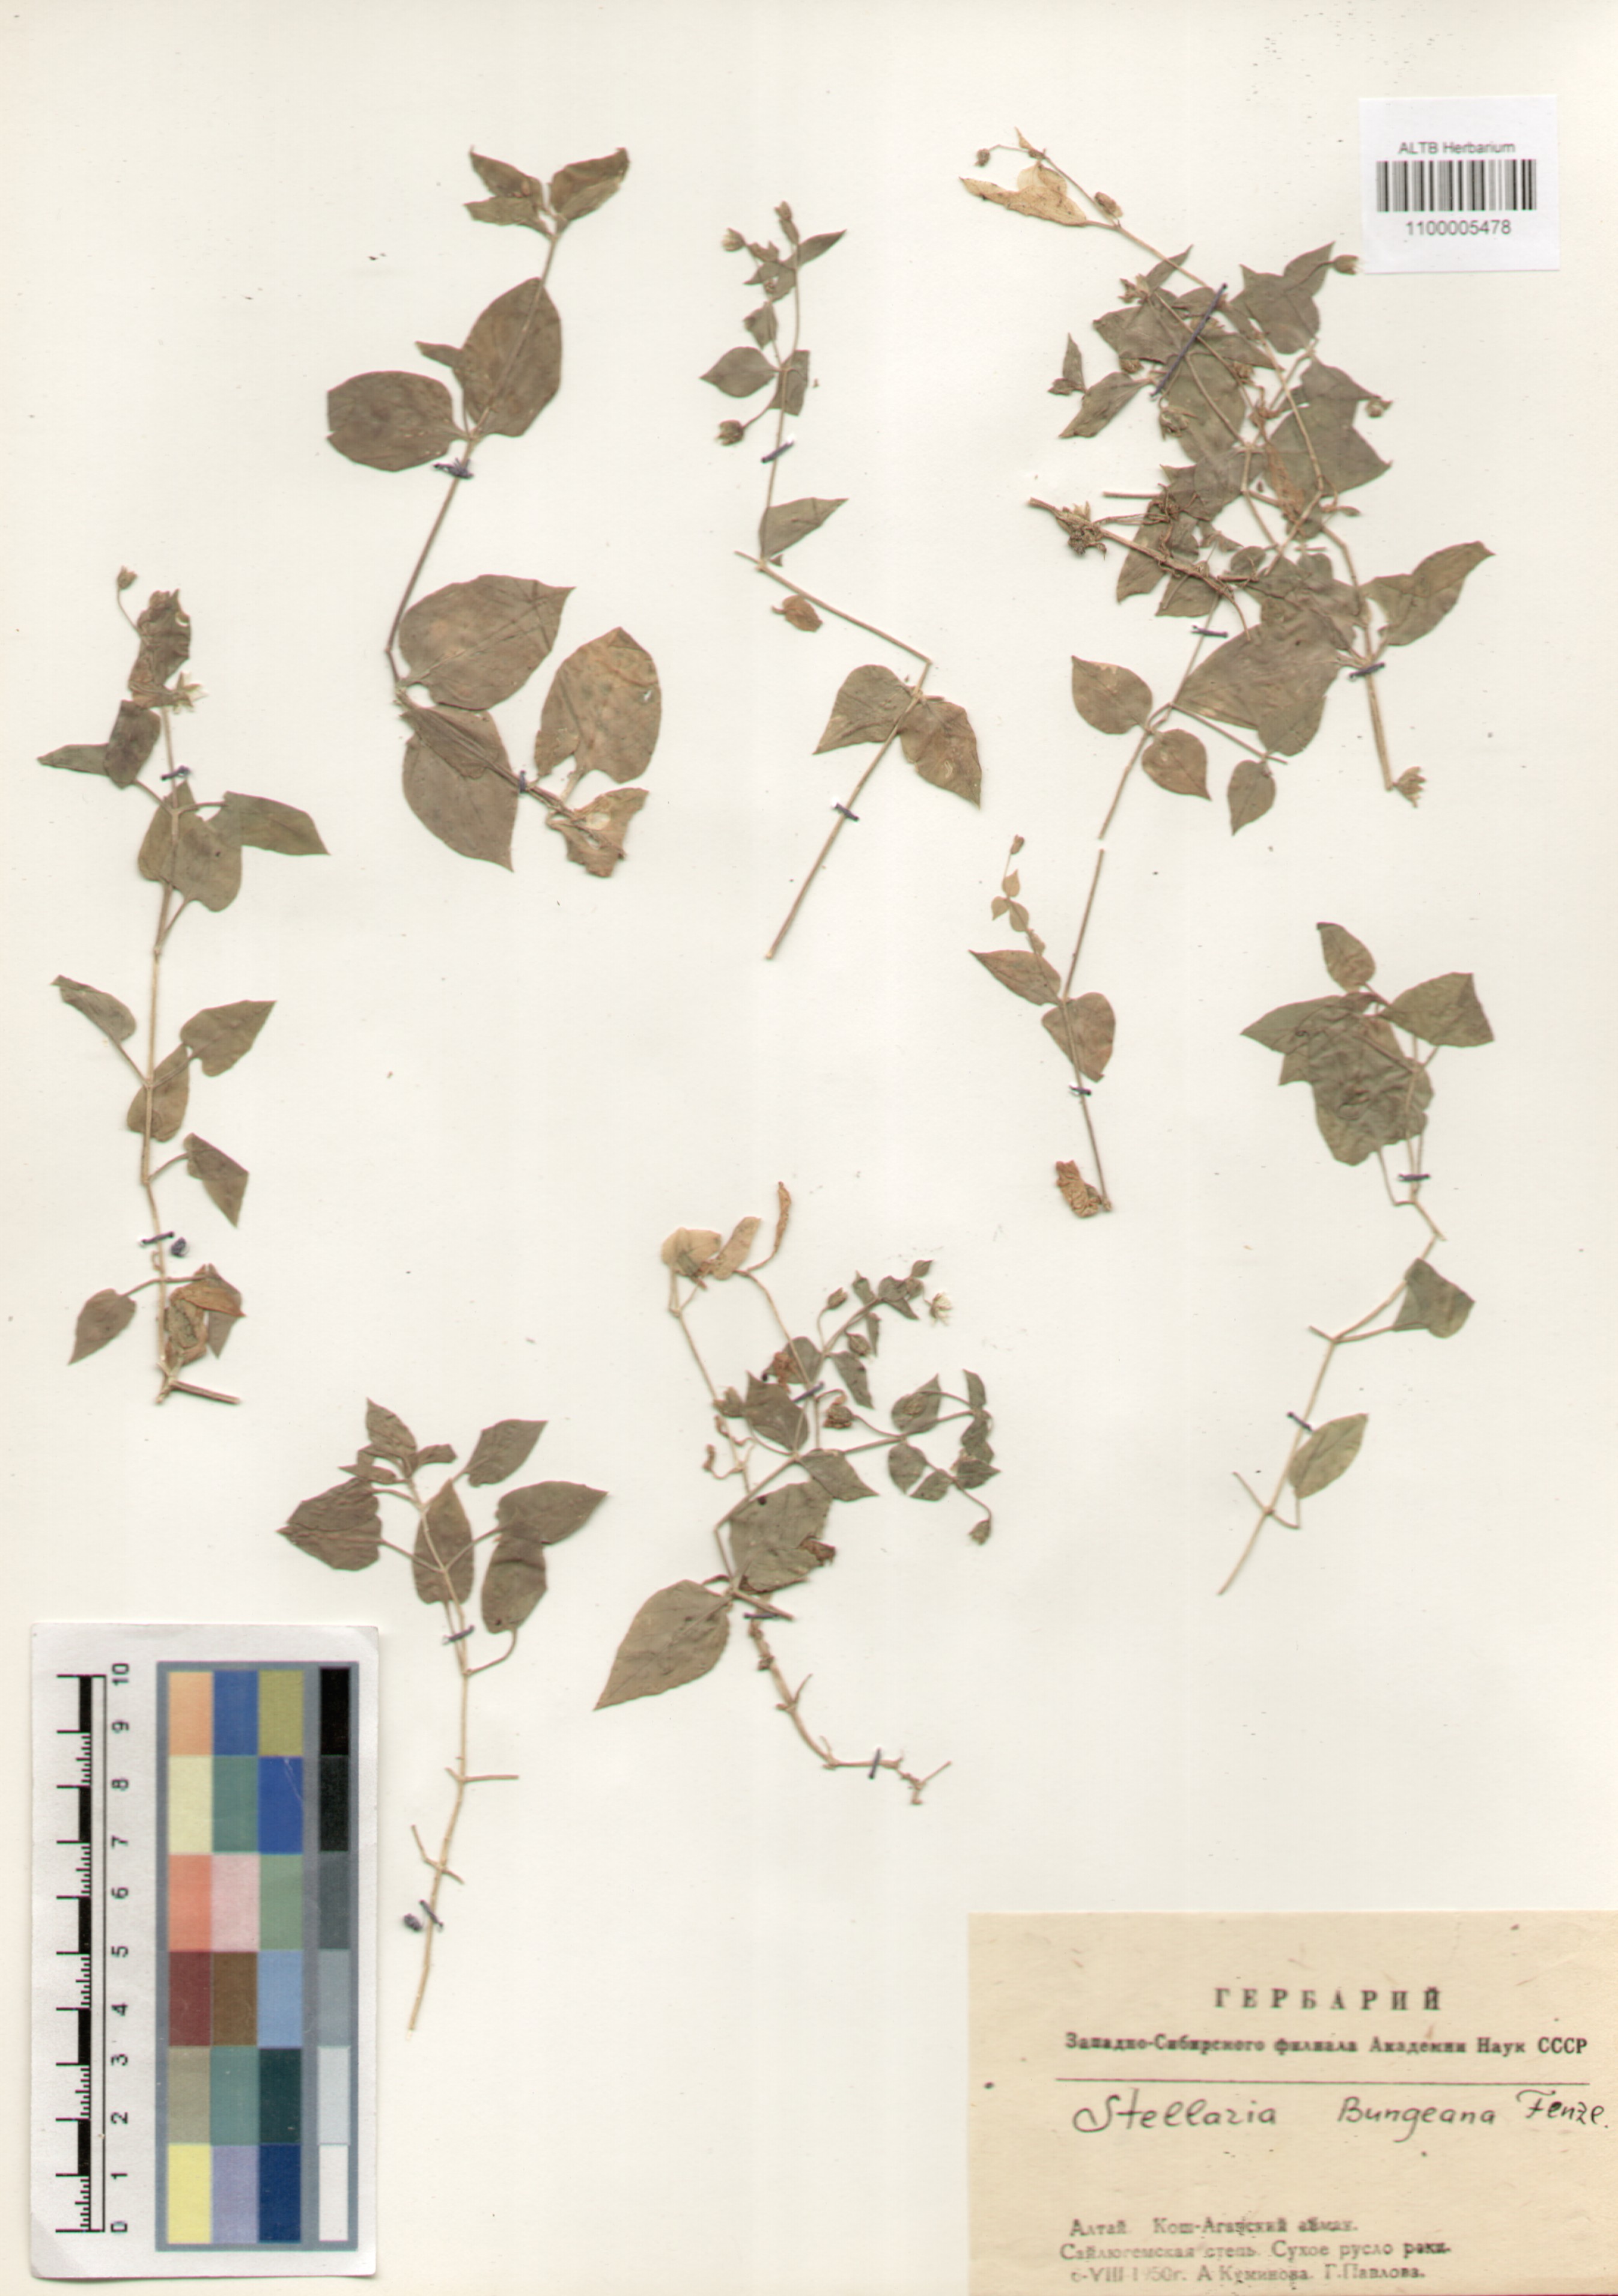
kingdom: Plantae
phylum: Tracheophyta
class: Magnoliopsida
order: Caryophyllales
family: Caryophyllaceae
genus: Stellaria
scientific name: Stellaria bungeana
